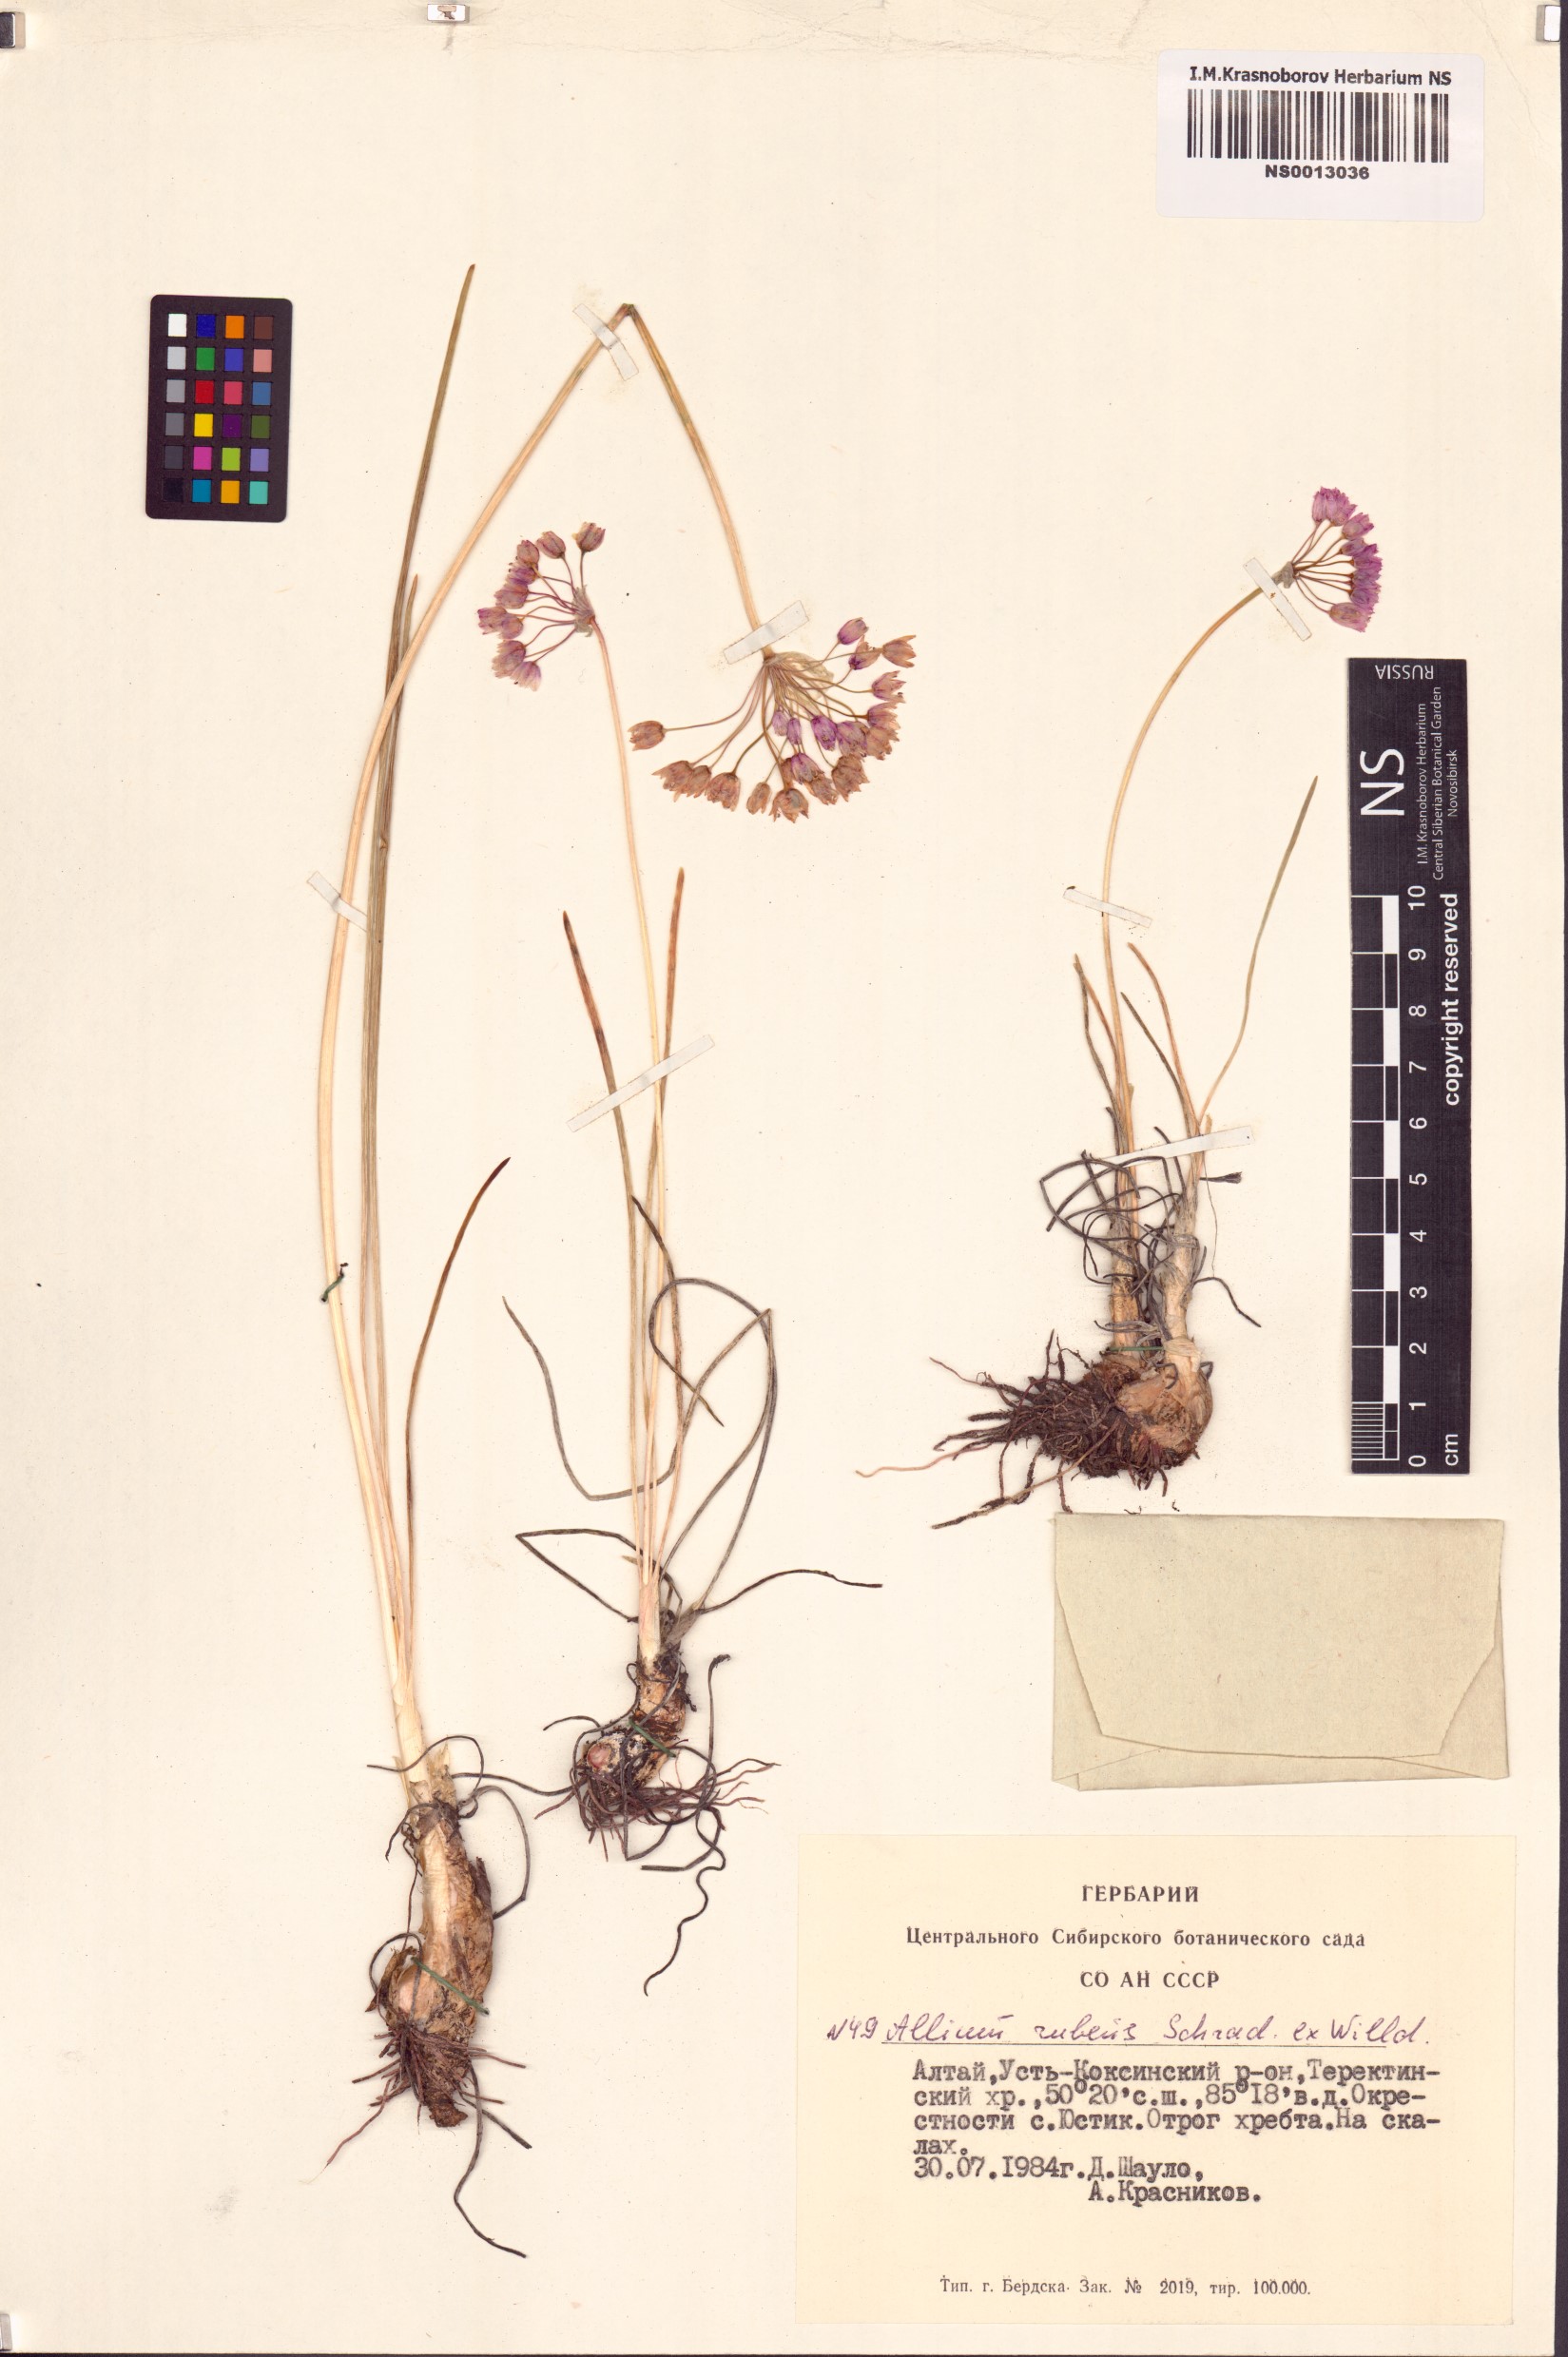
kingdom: Plantae
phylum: Tracheophyta
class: Liliopsida
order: Asparagales
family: Amaryllidaceae
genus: Allium
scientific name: Allium rubens
